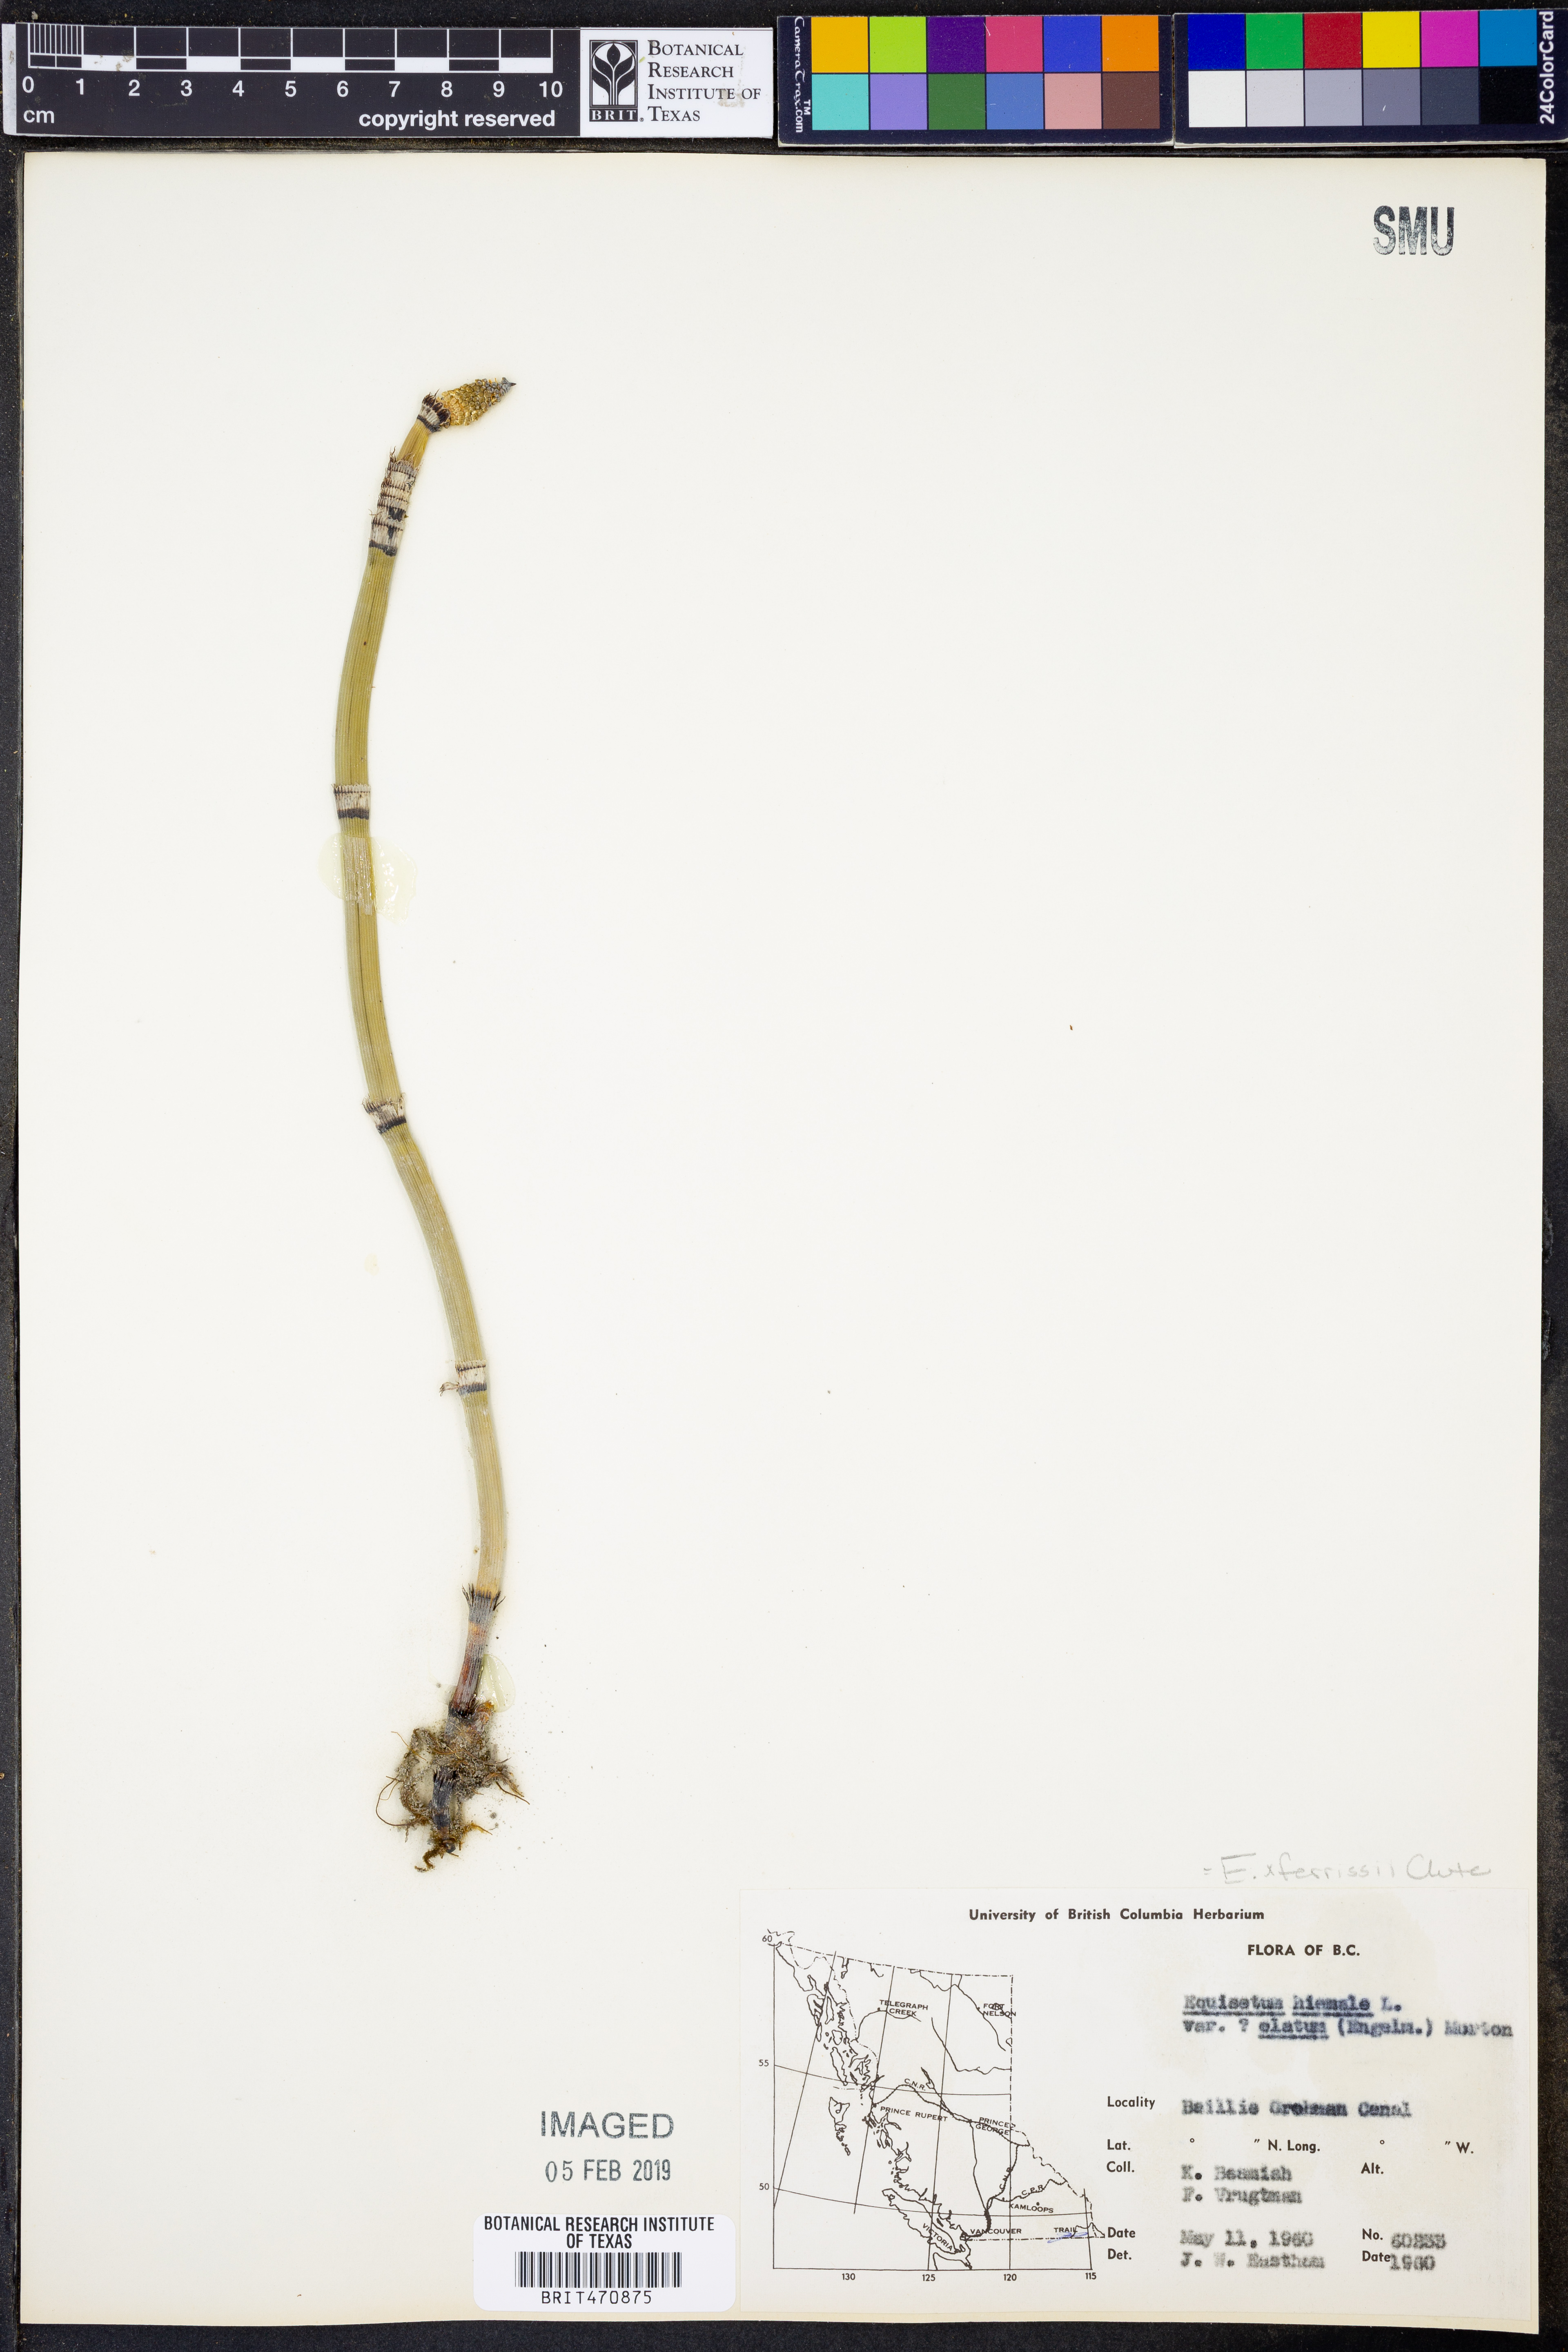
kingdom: Plantae
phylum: Tracheophyta
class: Polypodiopsida
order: Equisetales
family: Equisetaceae
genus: Equisetum
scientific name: Equisetum hyemale
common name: Rough horsetail
